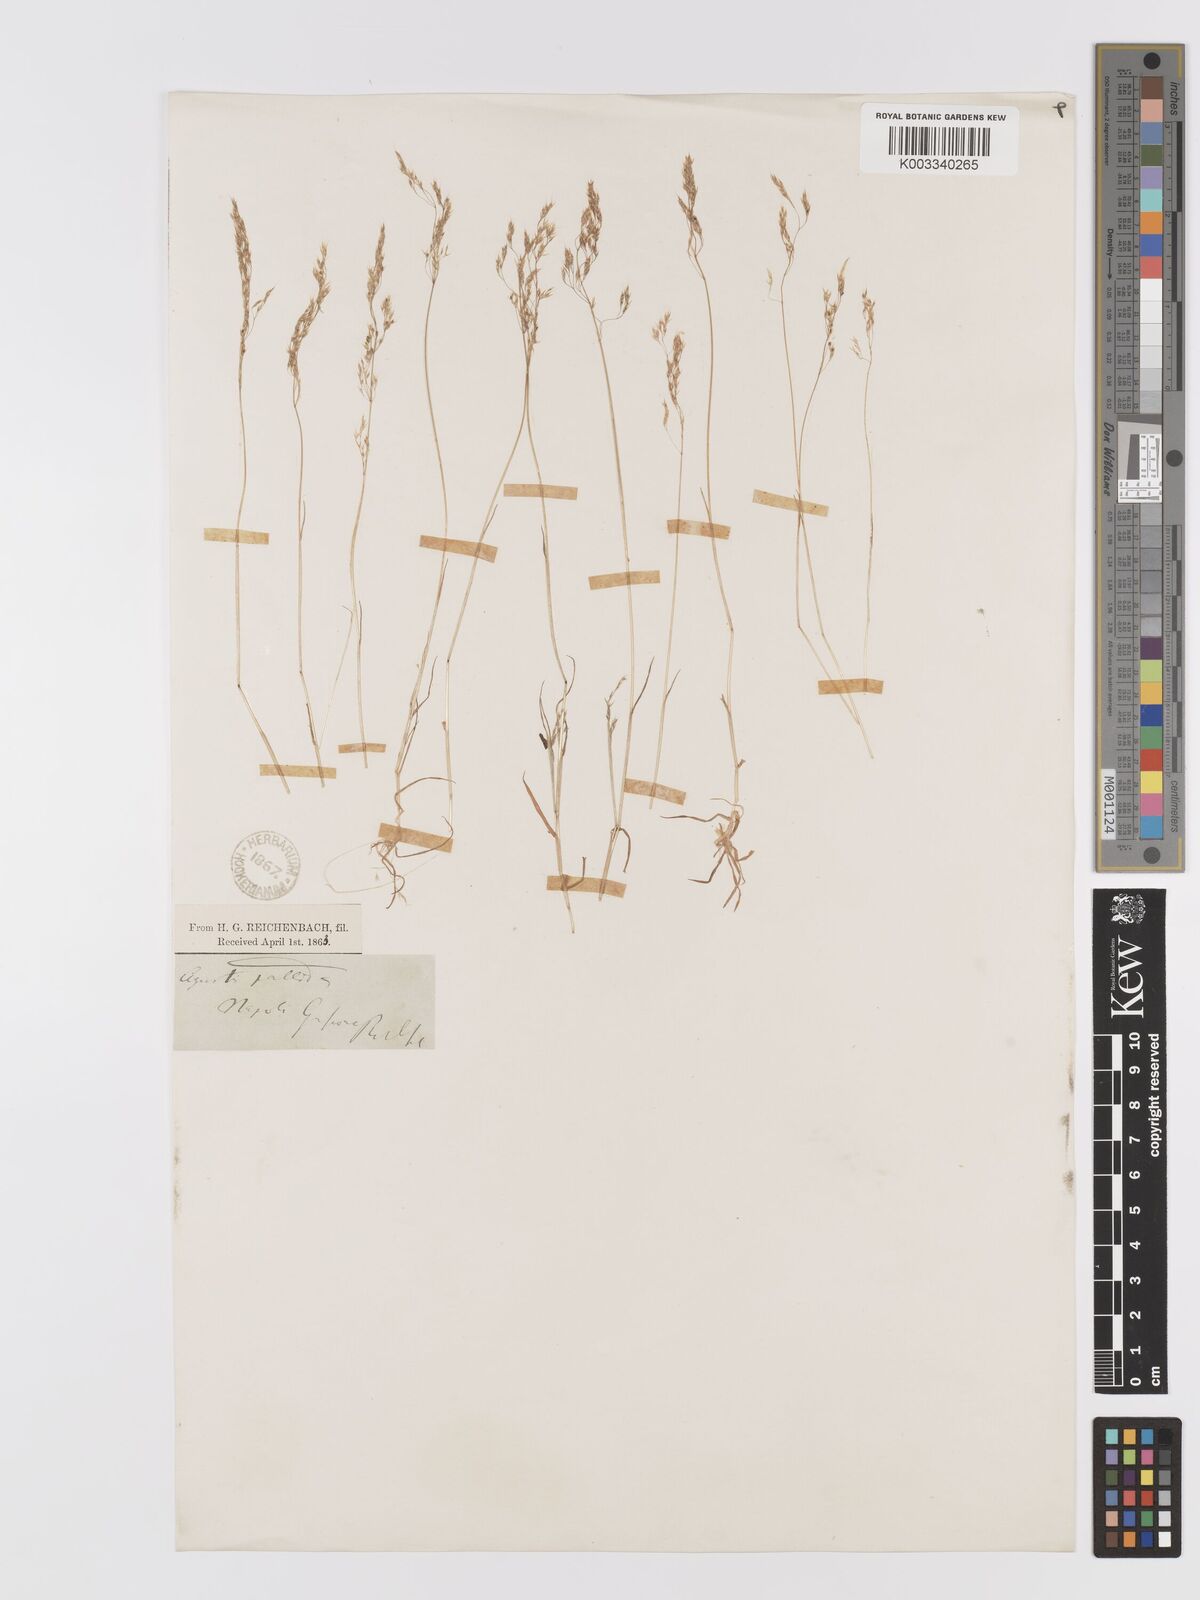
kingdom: Plantae
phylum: Tracheophyta
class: Liliopsida
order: Poales
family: Poaceae
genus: Agrostis
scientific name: Agrostis pourretii
